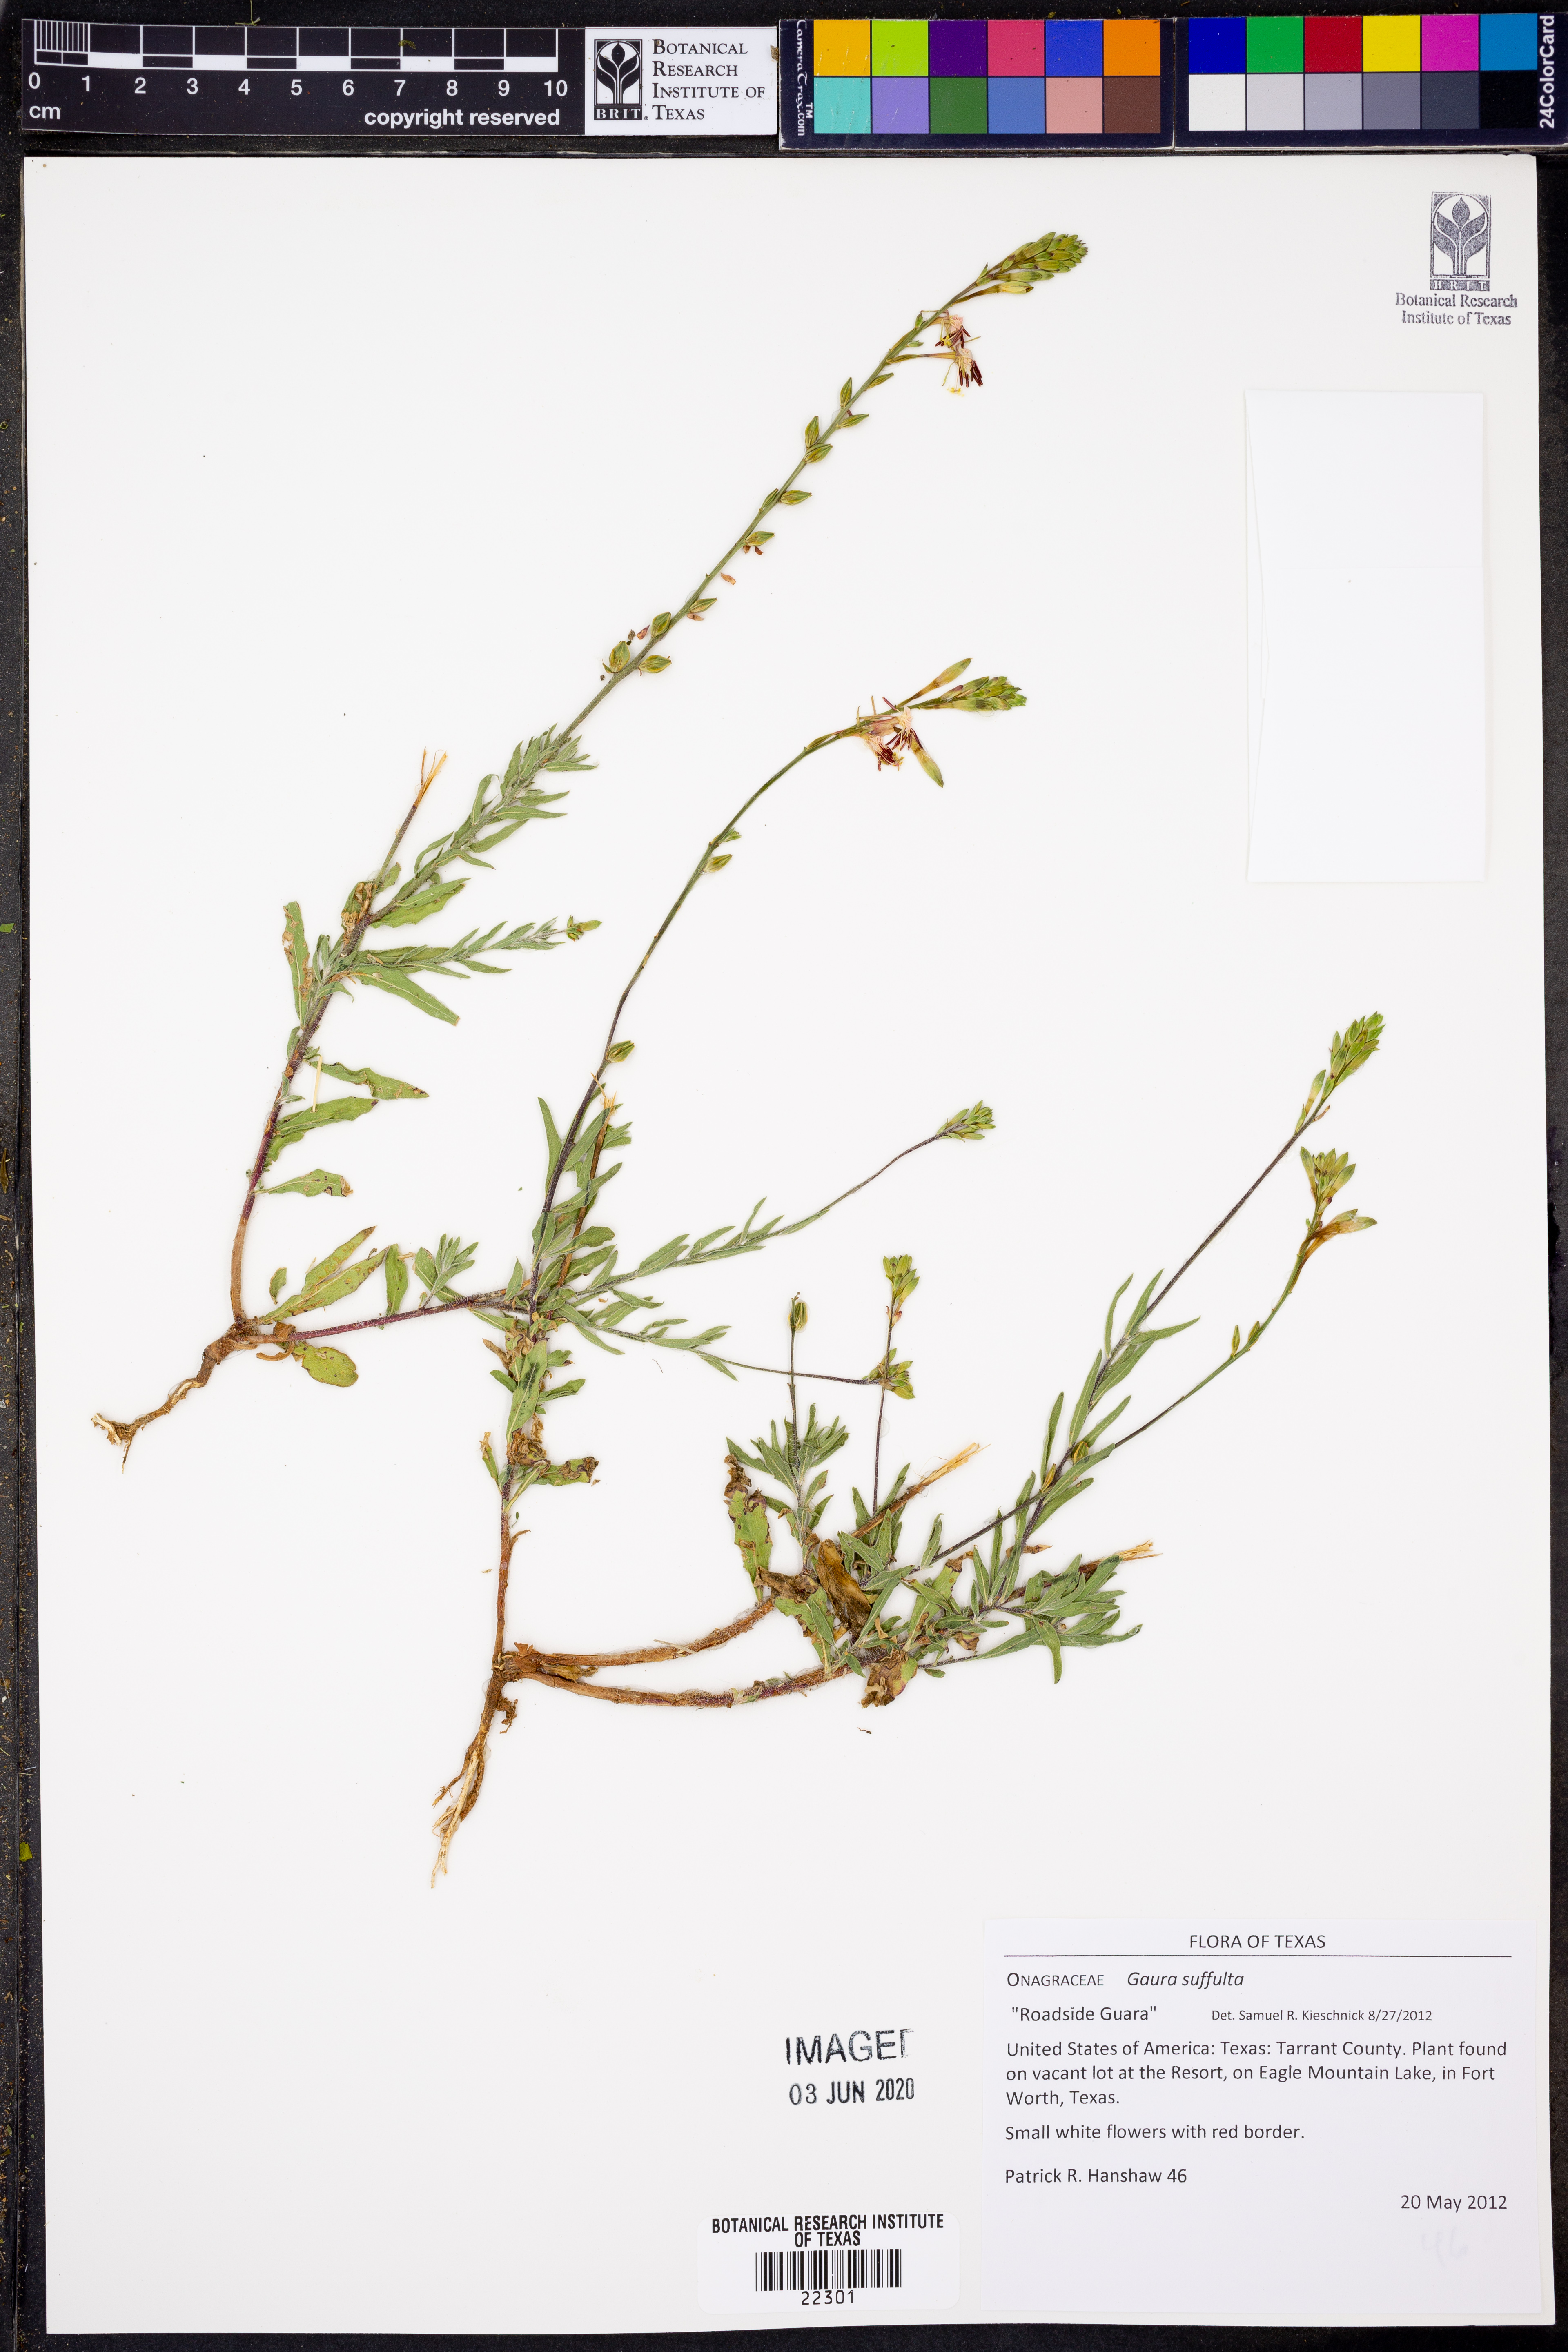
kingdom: Plantae
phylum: Tracheophyta
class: Magnoliopsida
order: Myrtales
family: Onagraceae
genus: Oenothera
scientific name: Oenothera Gaura suffulta
